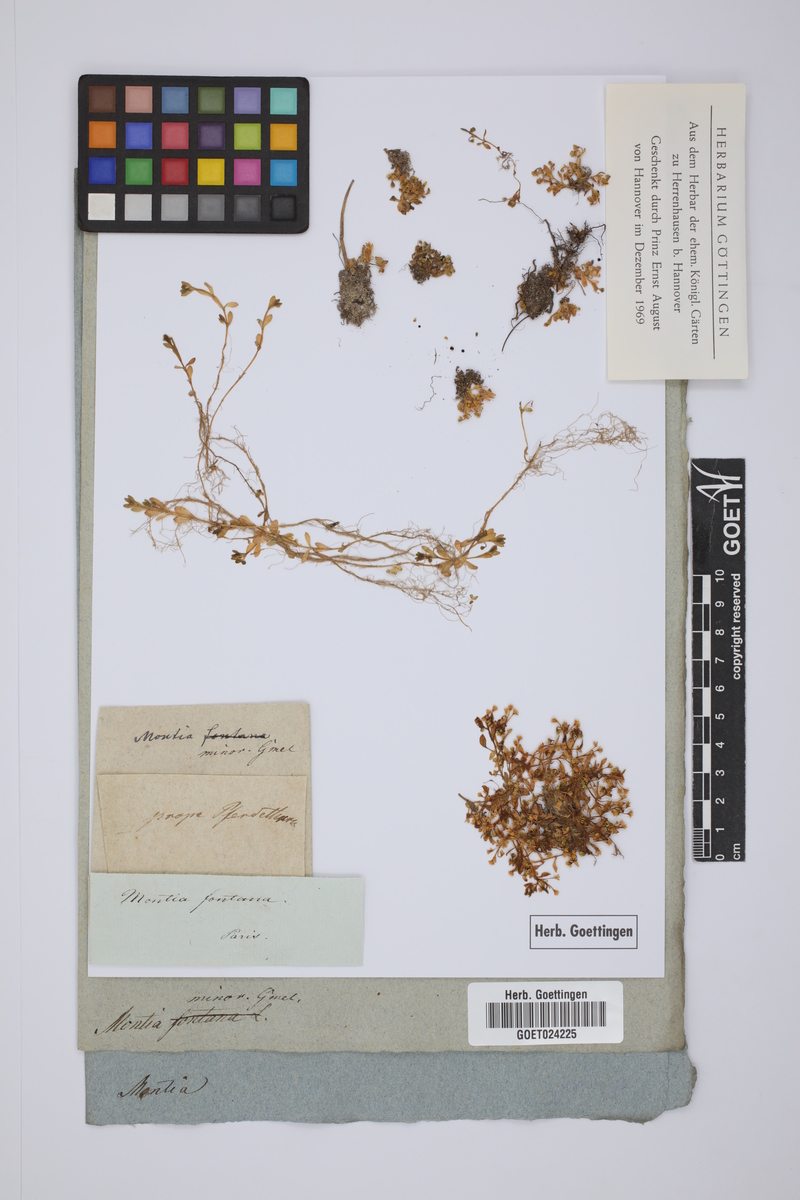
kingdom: Plantae
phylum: Tracheophyta
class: Magnoliopsida
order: Caryophyllales
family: Montiaceae
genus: Montia
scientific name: Montia arvensis
